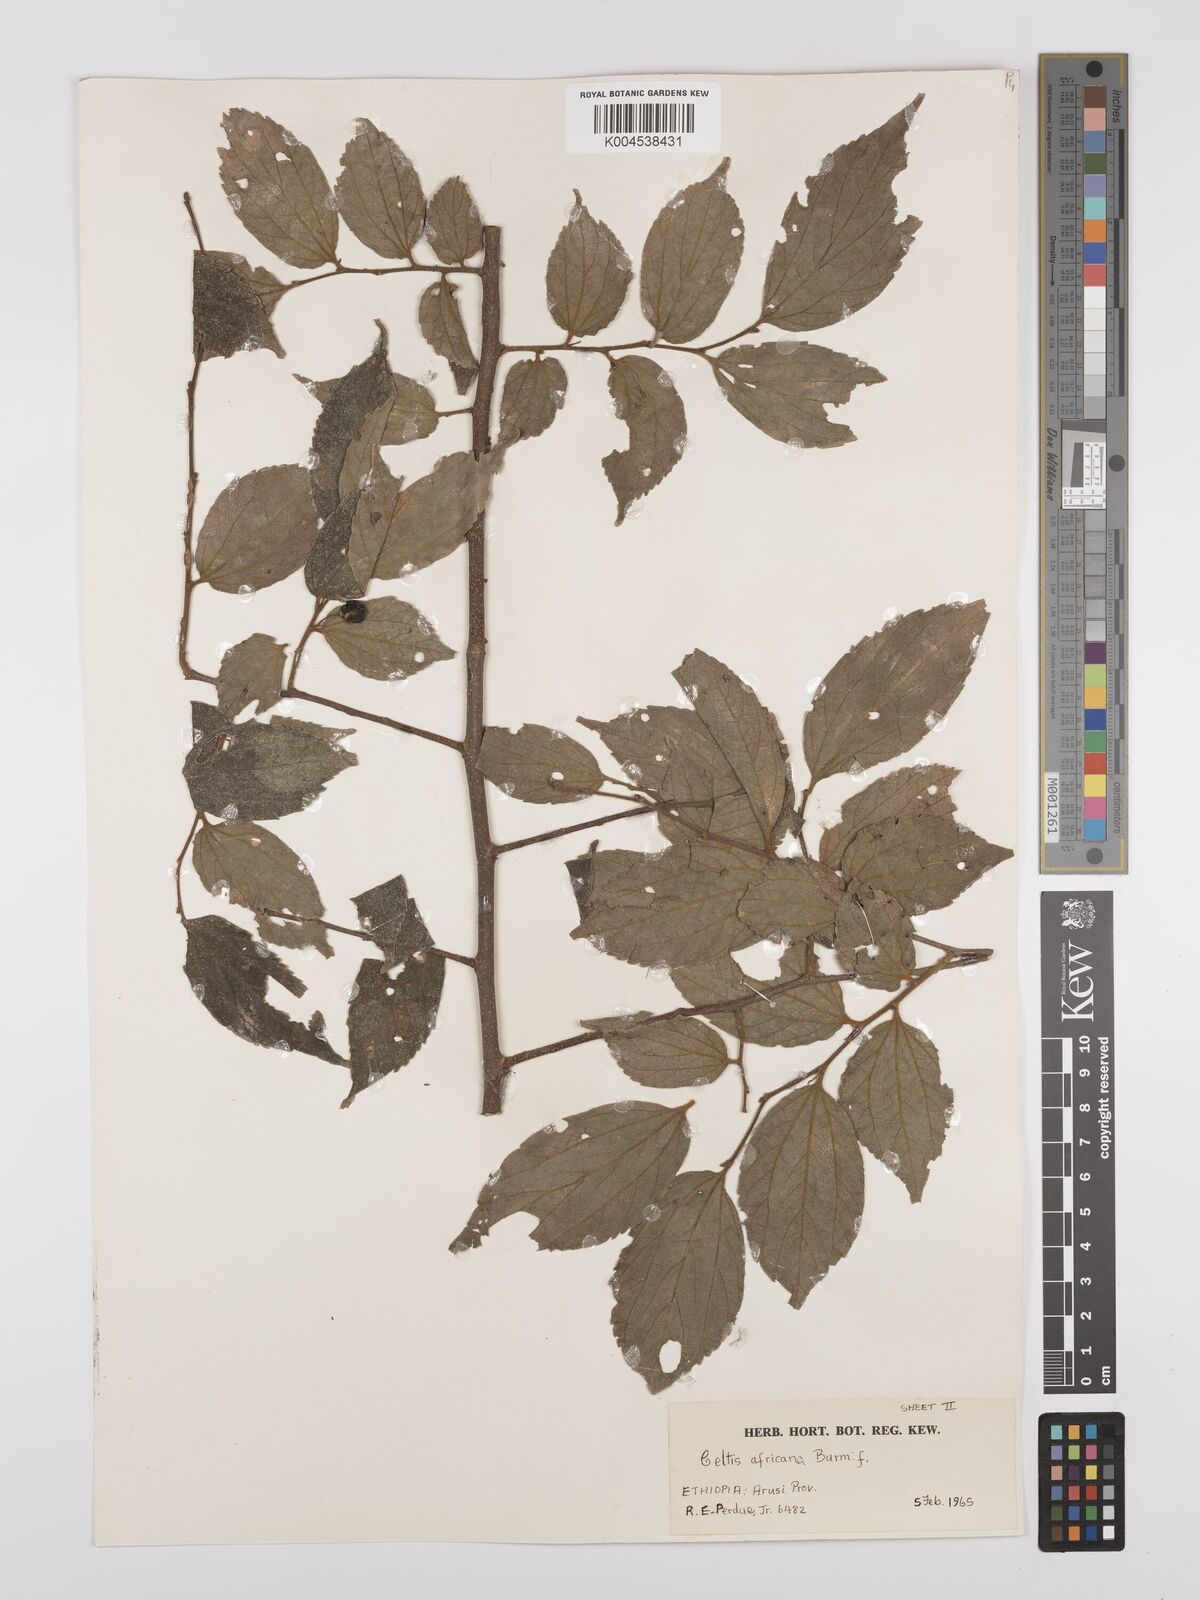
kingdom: Plantae
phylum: Tracheophyta
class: Magnoliopsida
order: Rosales
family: Cannabaceae
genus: Celtis
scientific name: Celtis africana
